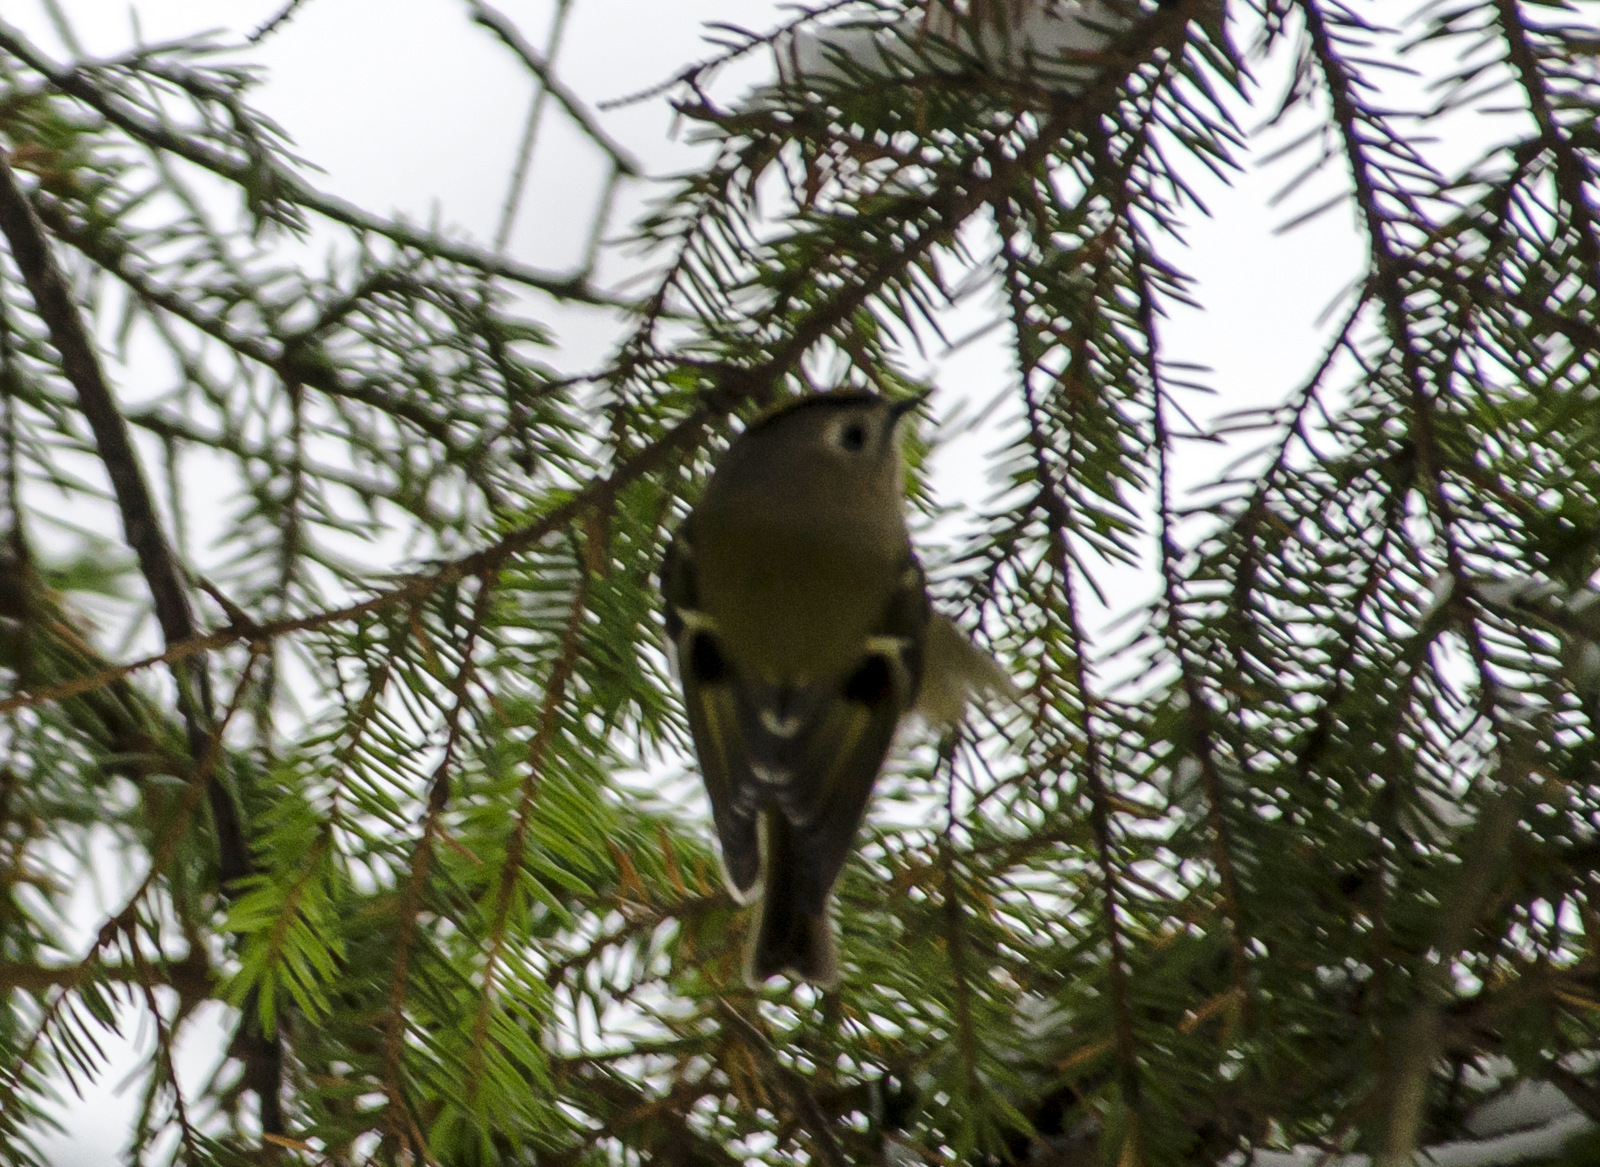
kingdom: Animalia
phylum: Chordata
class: Aves
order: Passeriformes
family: Regulidae
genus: Regulus
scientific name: Regulus regulus
